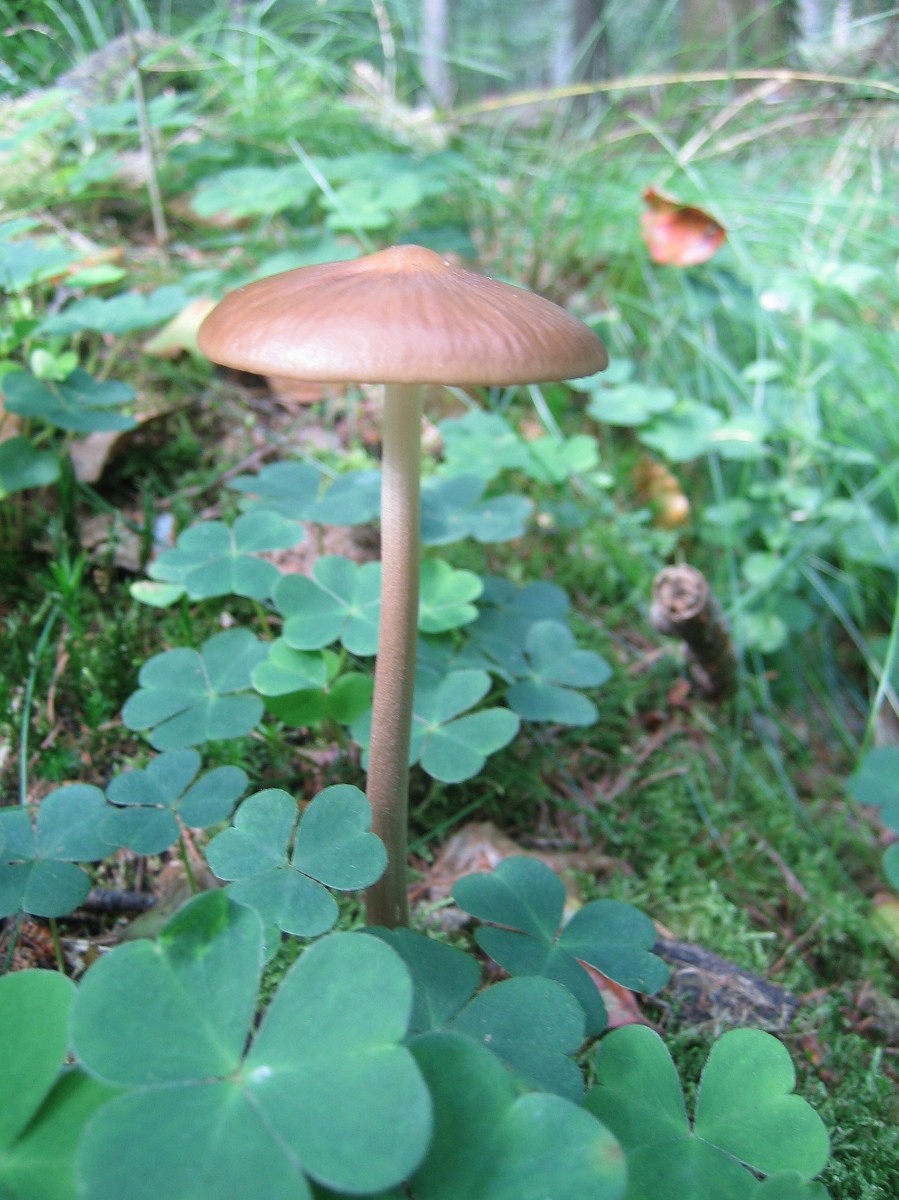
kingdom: Fungi
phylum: Basidiomycota
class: Agaricomycetes
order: Agaricales
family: Physalacriaceae
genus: Hymenopellis
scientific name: Hymenopellis radicata
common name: almindelig pælerodshat
